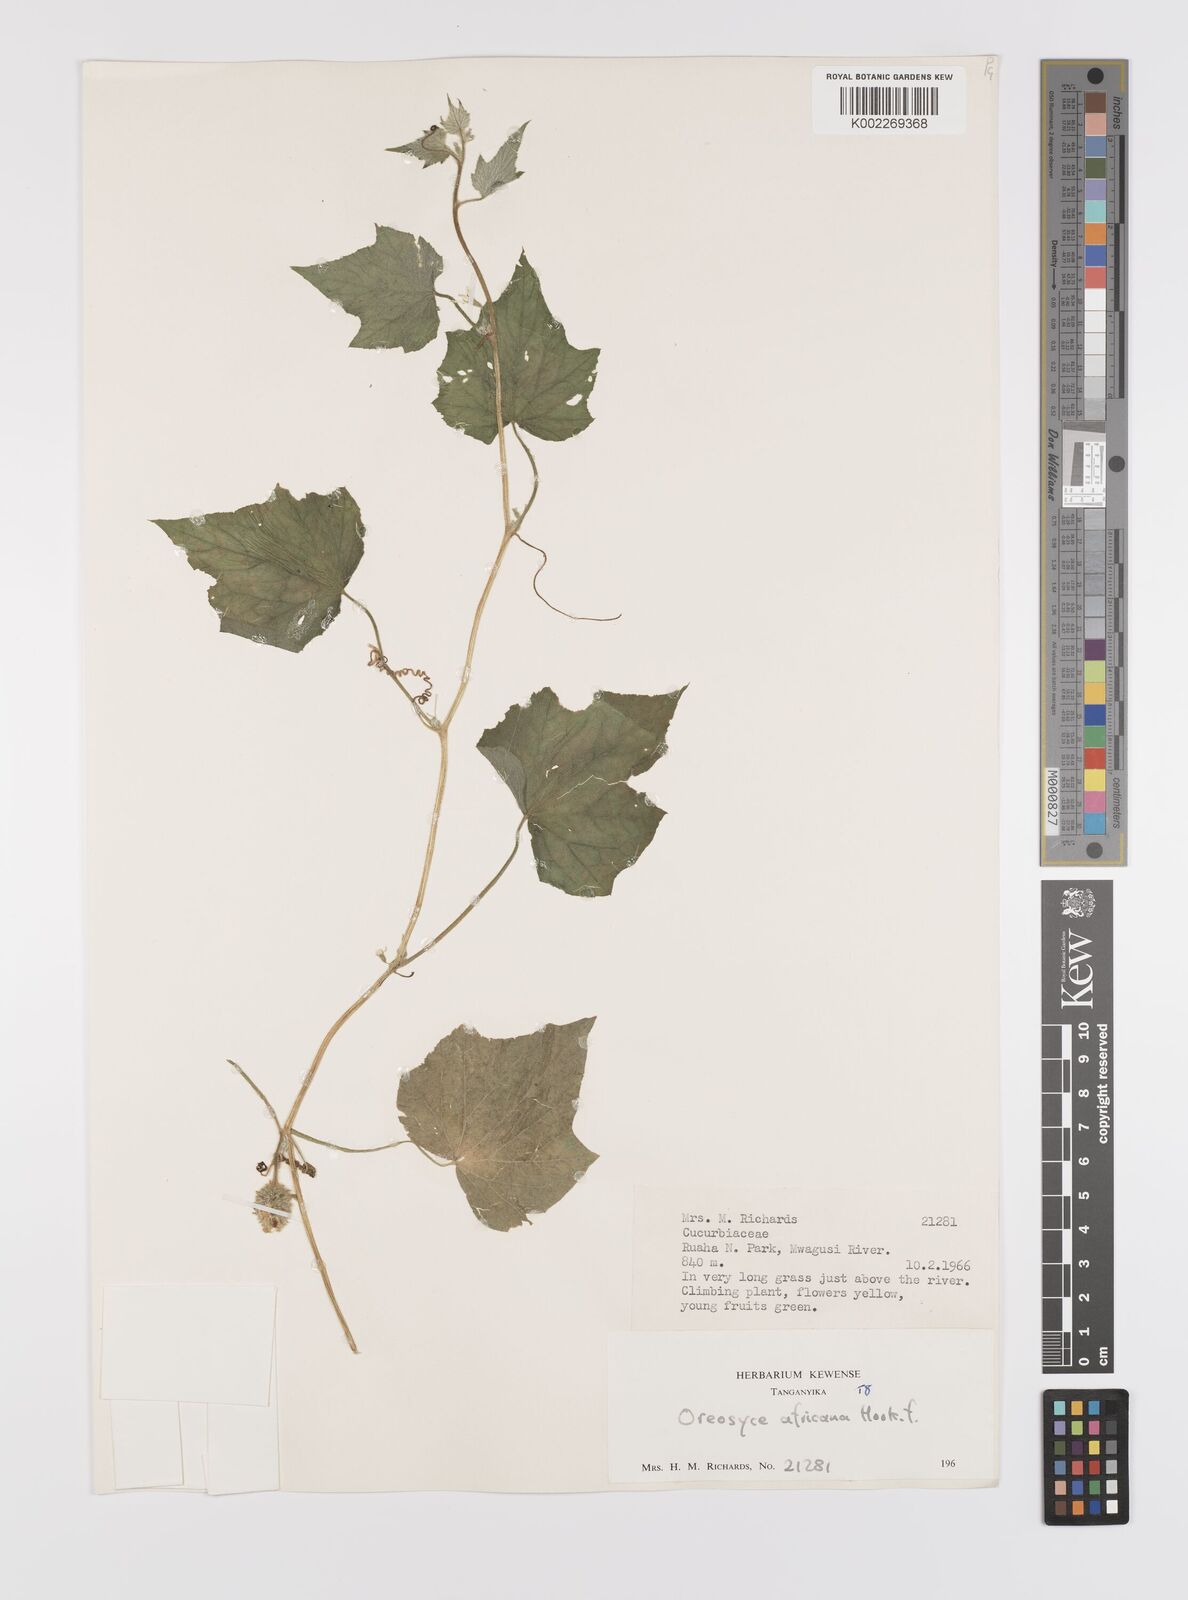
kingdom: Plantae
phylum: Tracheophyta
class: Magnoliopsida
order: Cucurbitales
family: Cucurbitaceae
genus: Cucumis
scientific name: Cucumis oreosyce
